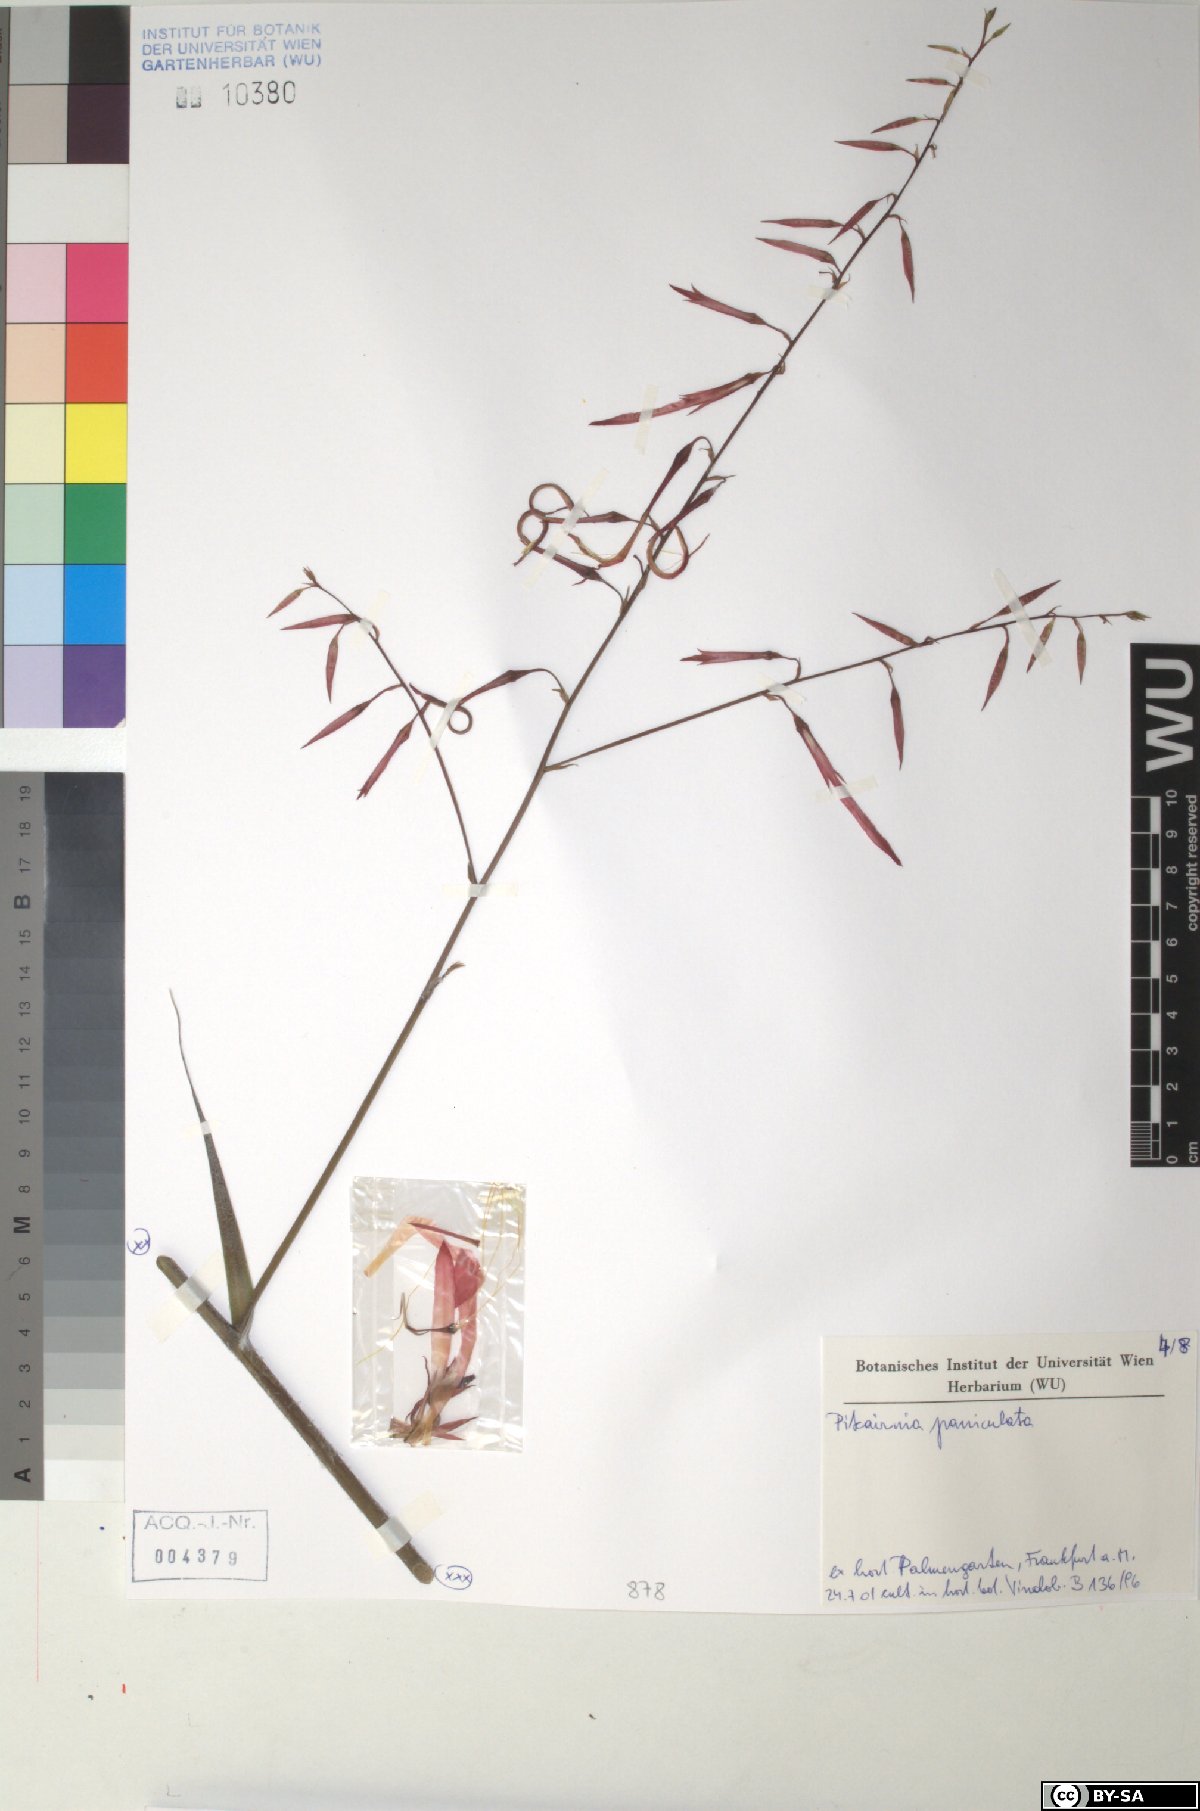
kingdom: Plantae
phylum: Tracheophyta
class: Liliopsida
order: Poales
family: Bromeliaceae
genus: Pitcairnia
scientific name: Pitcairnia paniculata
